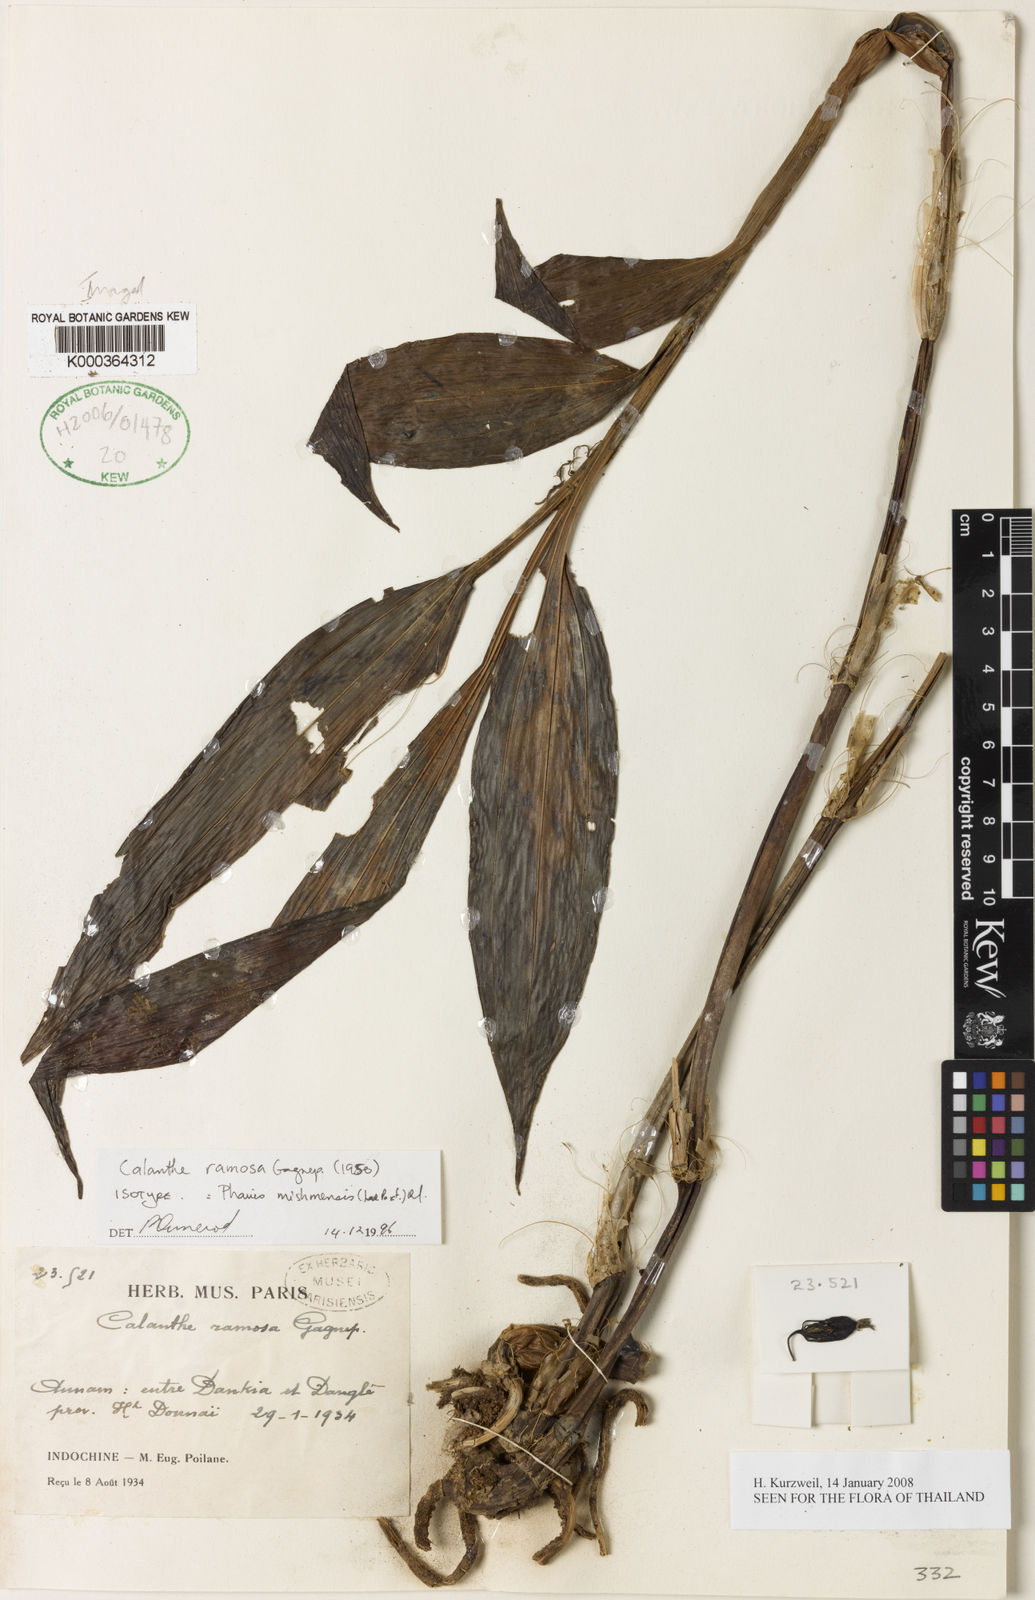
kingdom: Plantae
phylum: Tracheophyta
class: Liliopsida
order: Asparagales
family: Orchidaceae
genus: Calanthe
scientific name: Calanthe mishmensis
